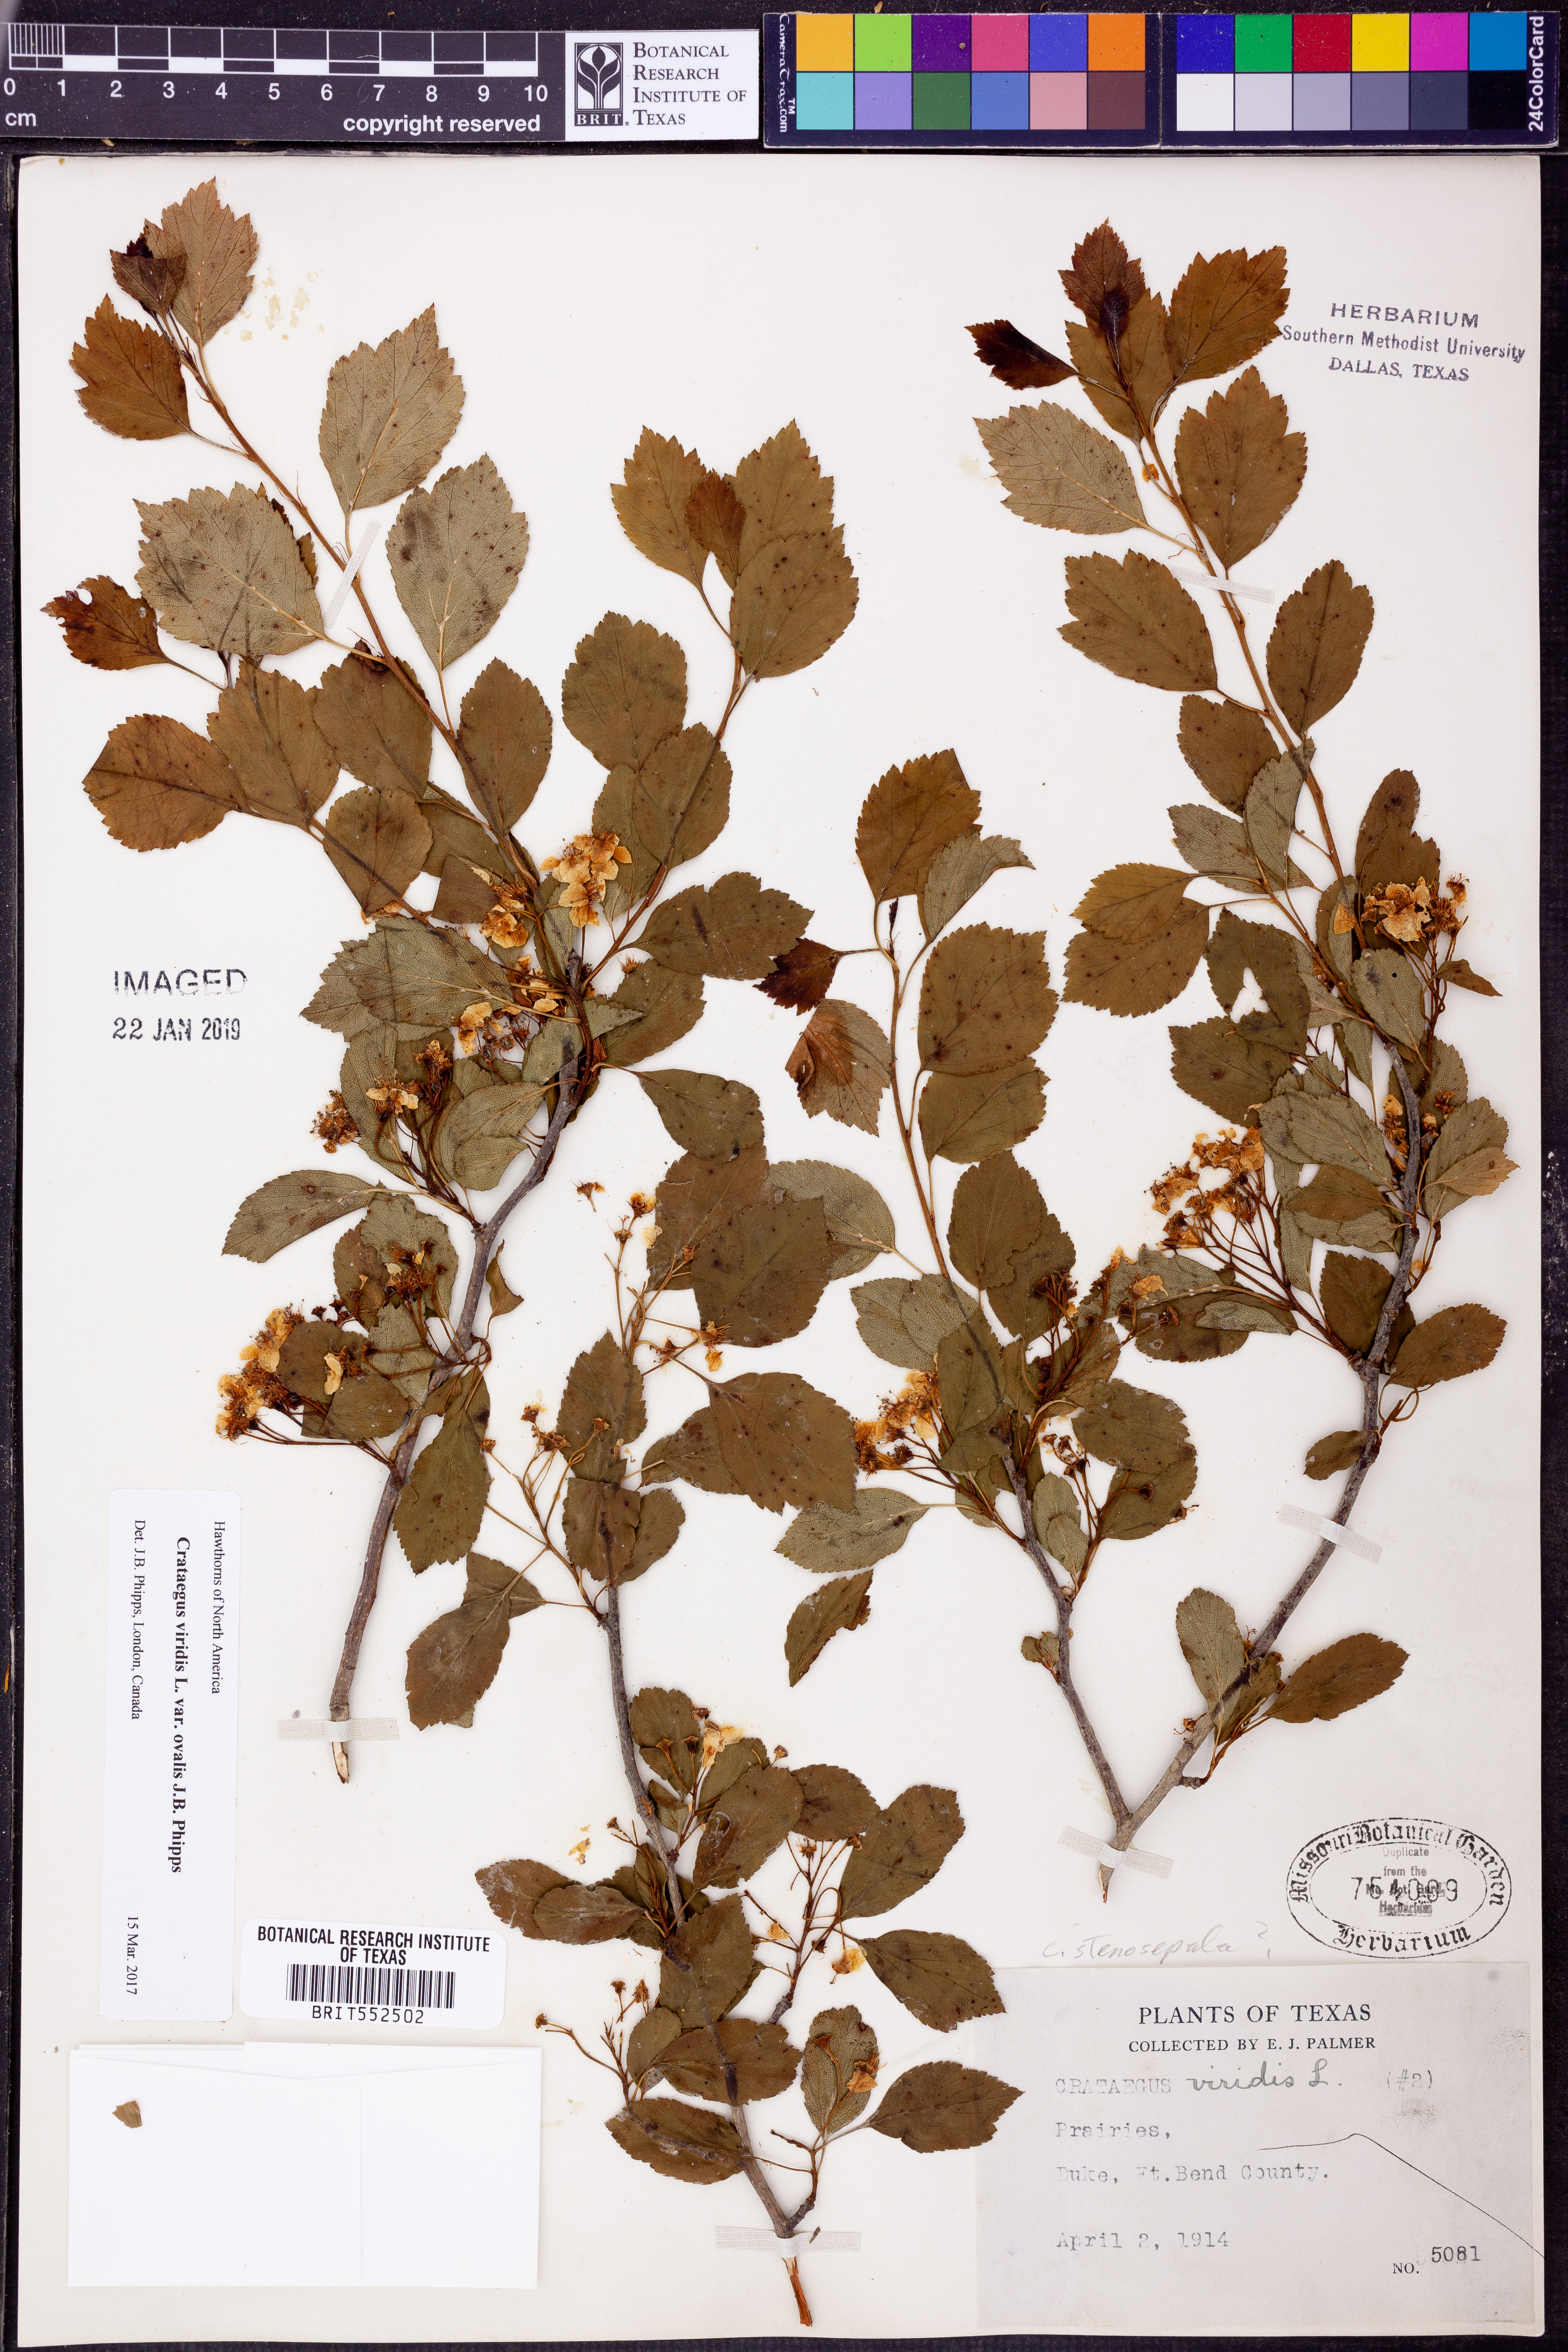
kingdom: Plantae
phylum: Tracheophyta
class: Magnoliopsida
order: Rosales
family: Rosaceae
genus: Crataegus
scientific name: Crataegus viridis
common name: Southernthorn
